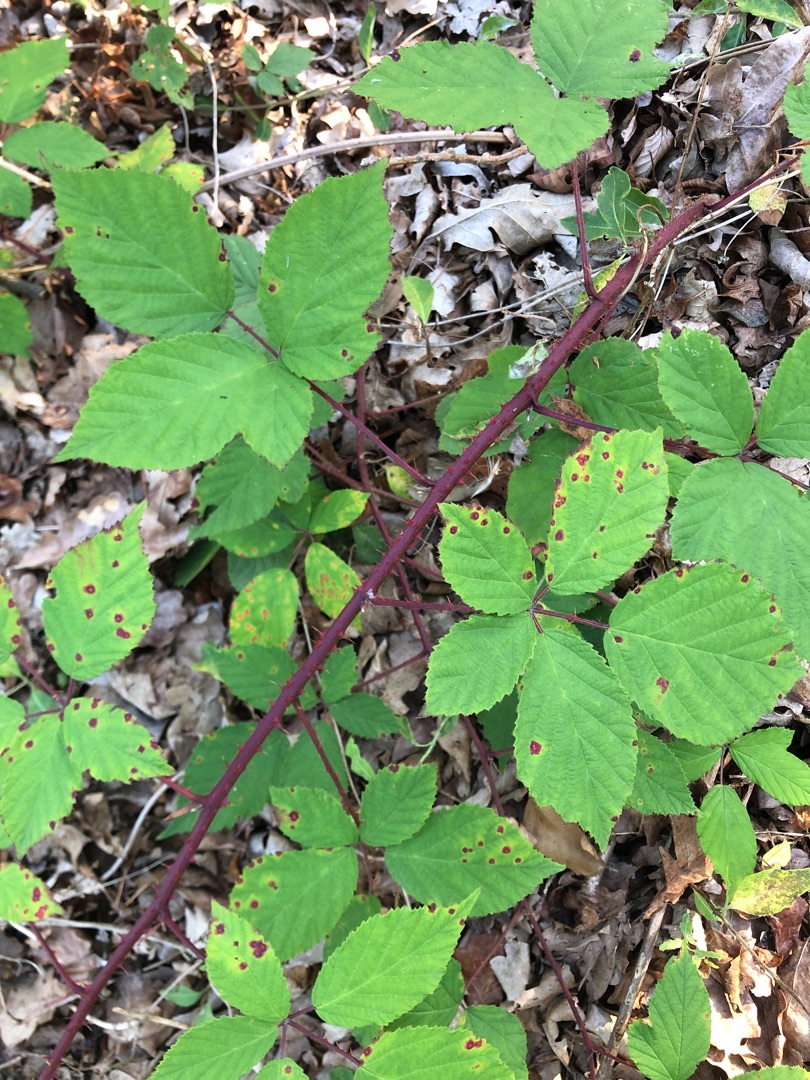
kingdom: Plantae
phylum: Tracheophyta
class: Magnoliopsida
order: Rosales
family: Rosaceae
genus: Rubus
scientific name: Rubus
